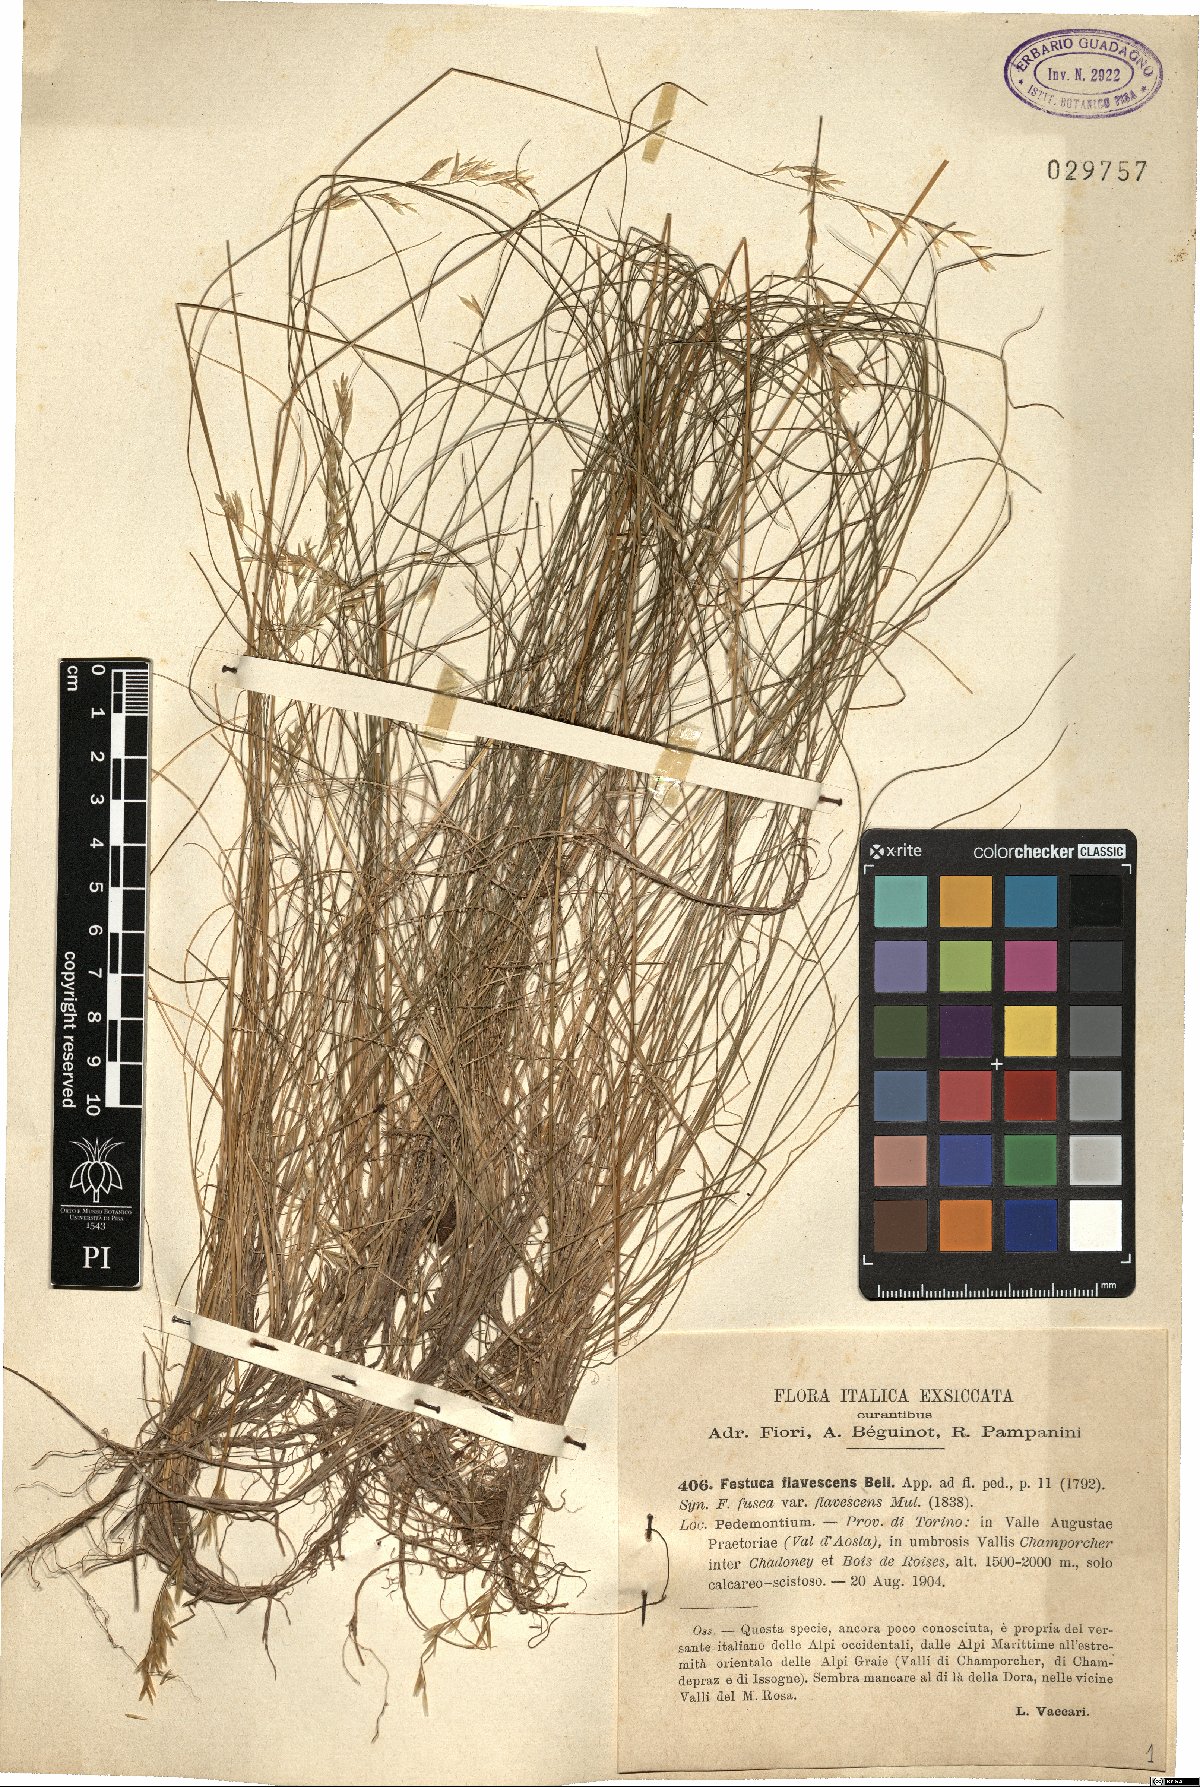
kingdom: Plantae
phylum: Tracheophyta
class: Liliopsida
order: Poales
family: Poaceae
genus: Festuca
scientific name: Festuca flavescens
